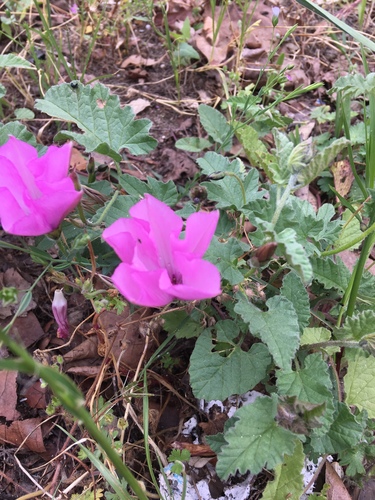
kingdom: Plantae
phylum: Tracheophyta
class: Magnoliopsida
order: Solanales
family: Convolvulaceae
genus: Convolvulus
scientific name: Convolvulus althaeoides
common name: Mallow bindweed
